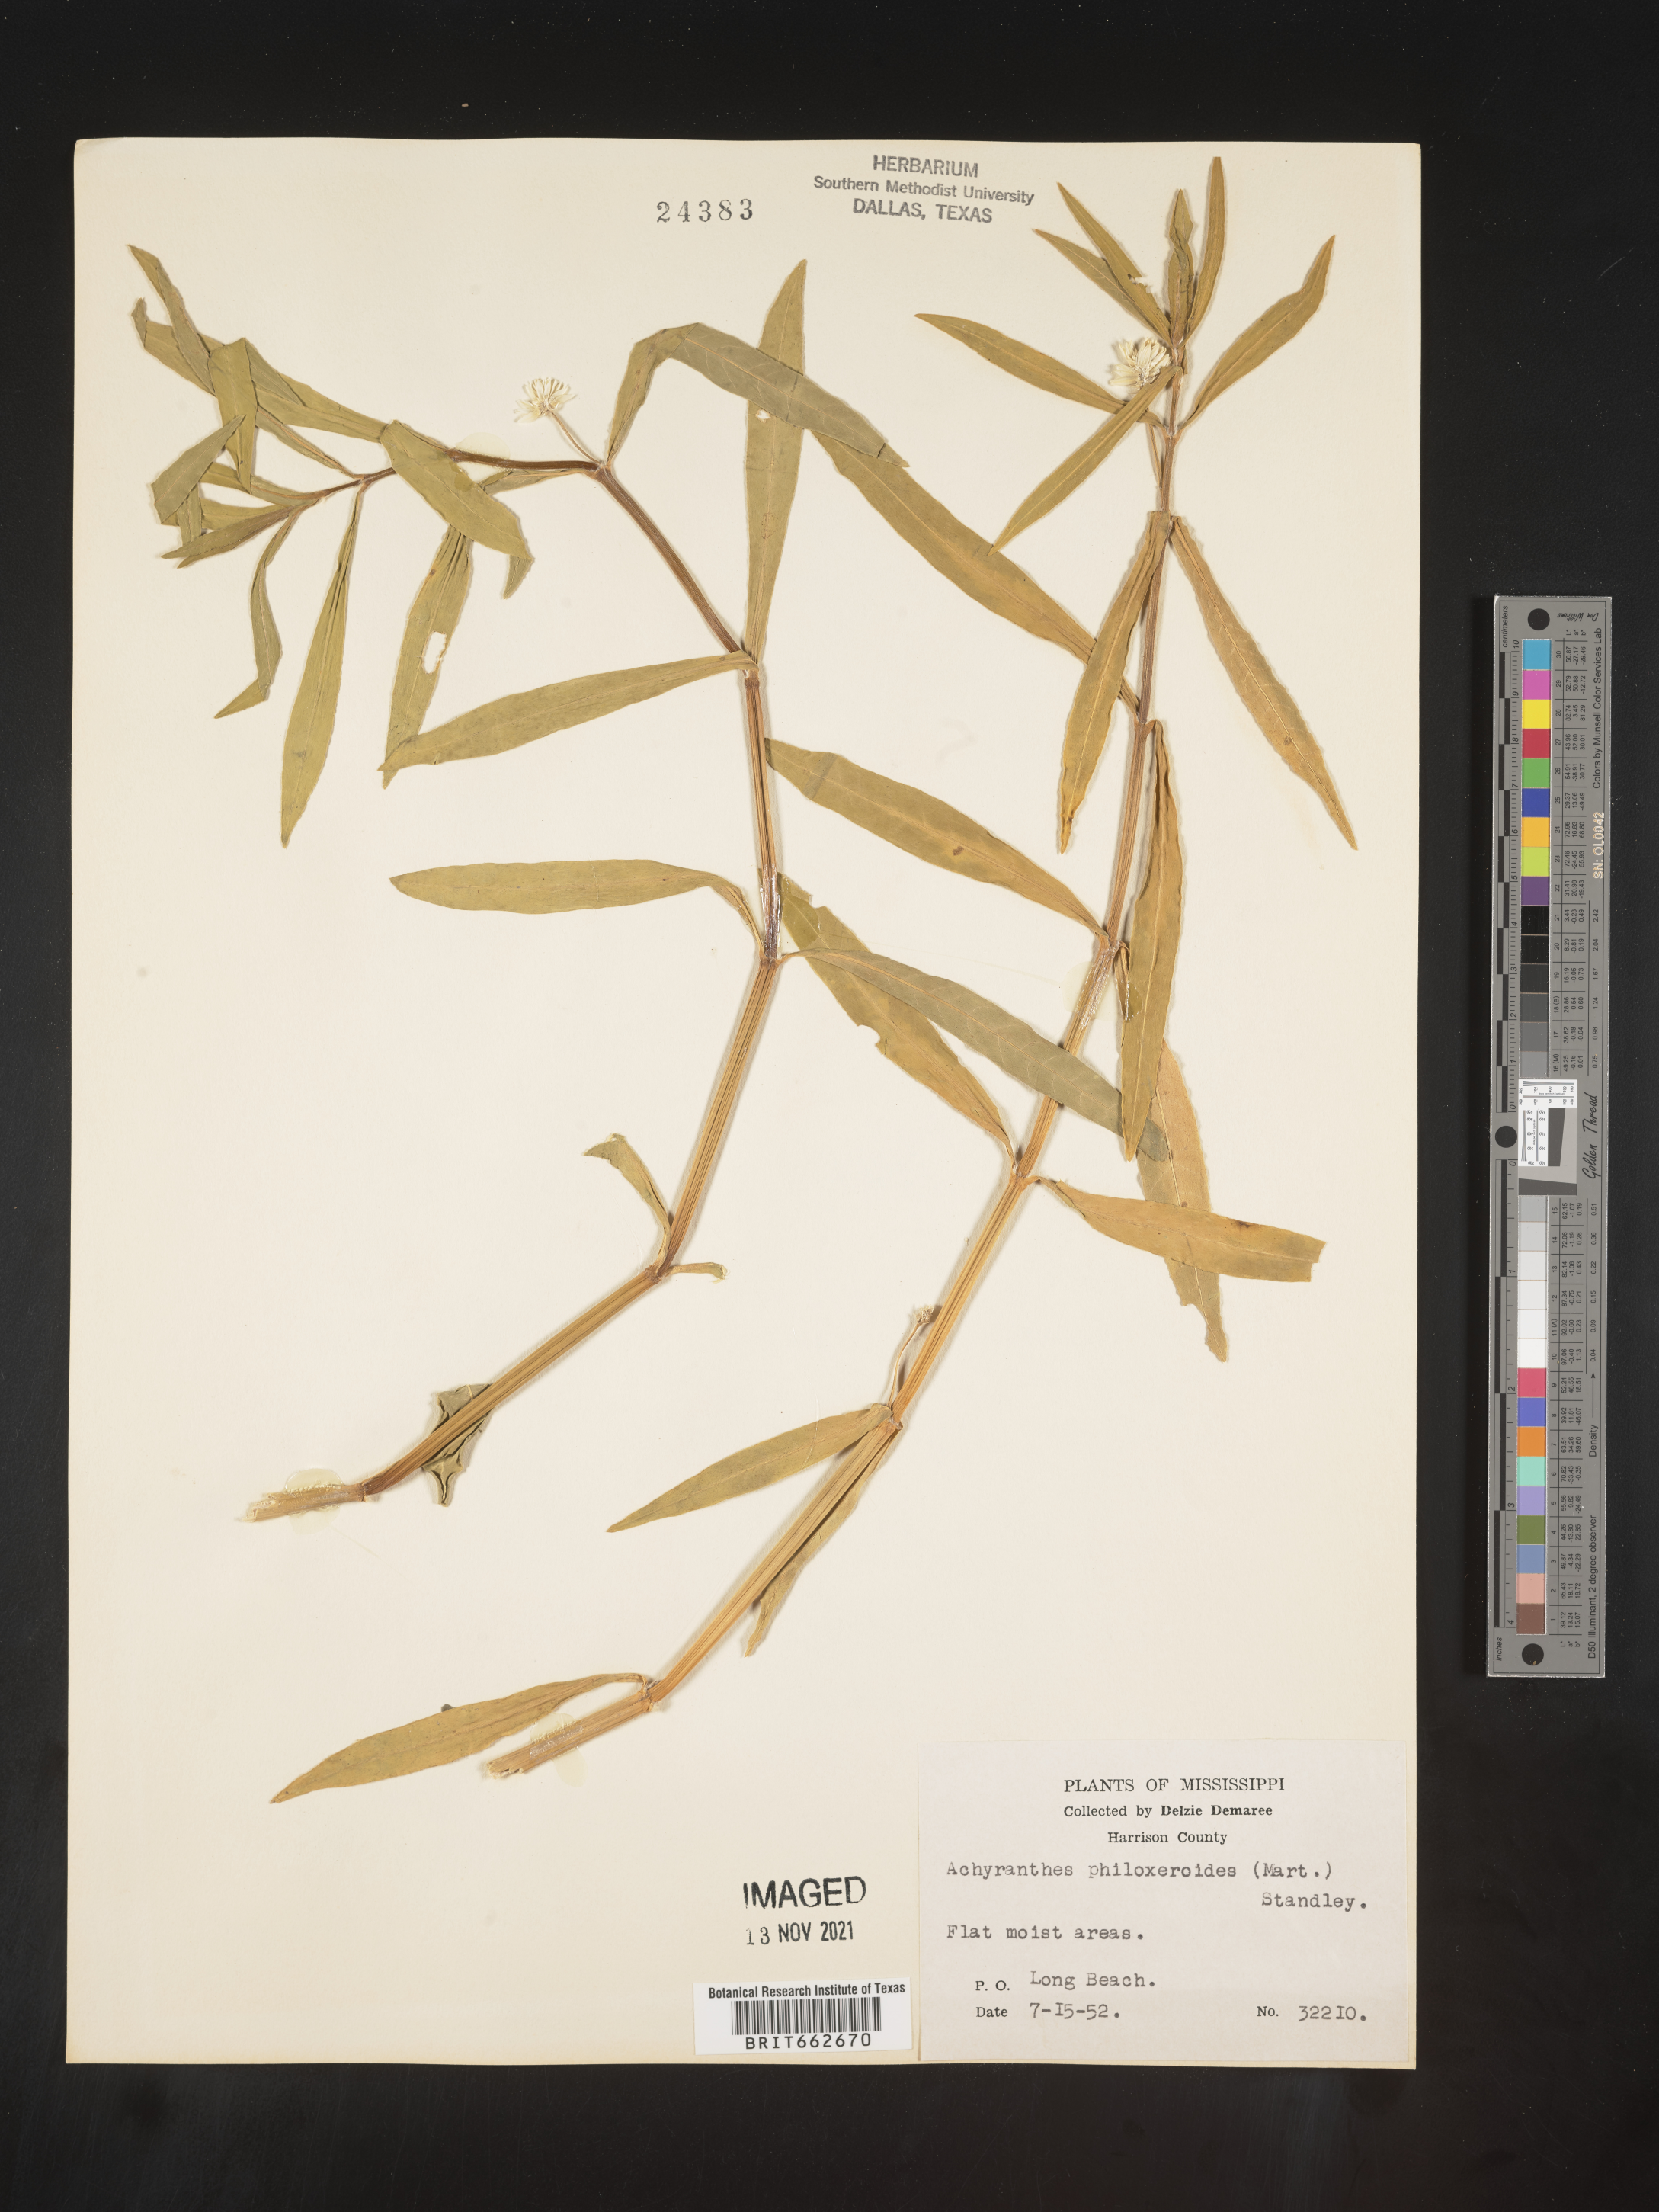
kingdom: Plantae
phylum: Tracheophyta
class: Magnoliopsida
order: Caryophyllales
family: Amaranthaceae
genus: Alternanthera
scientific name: Alternanthera philoxeroides
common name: Alligatorweed
